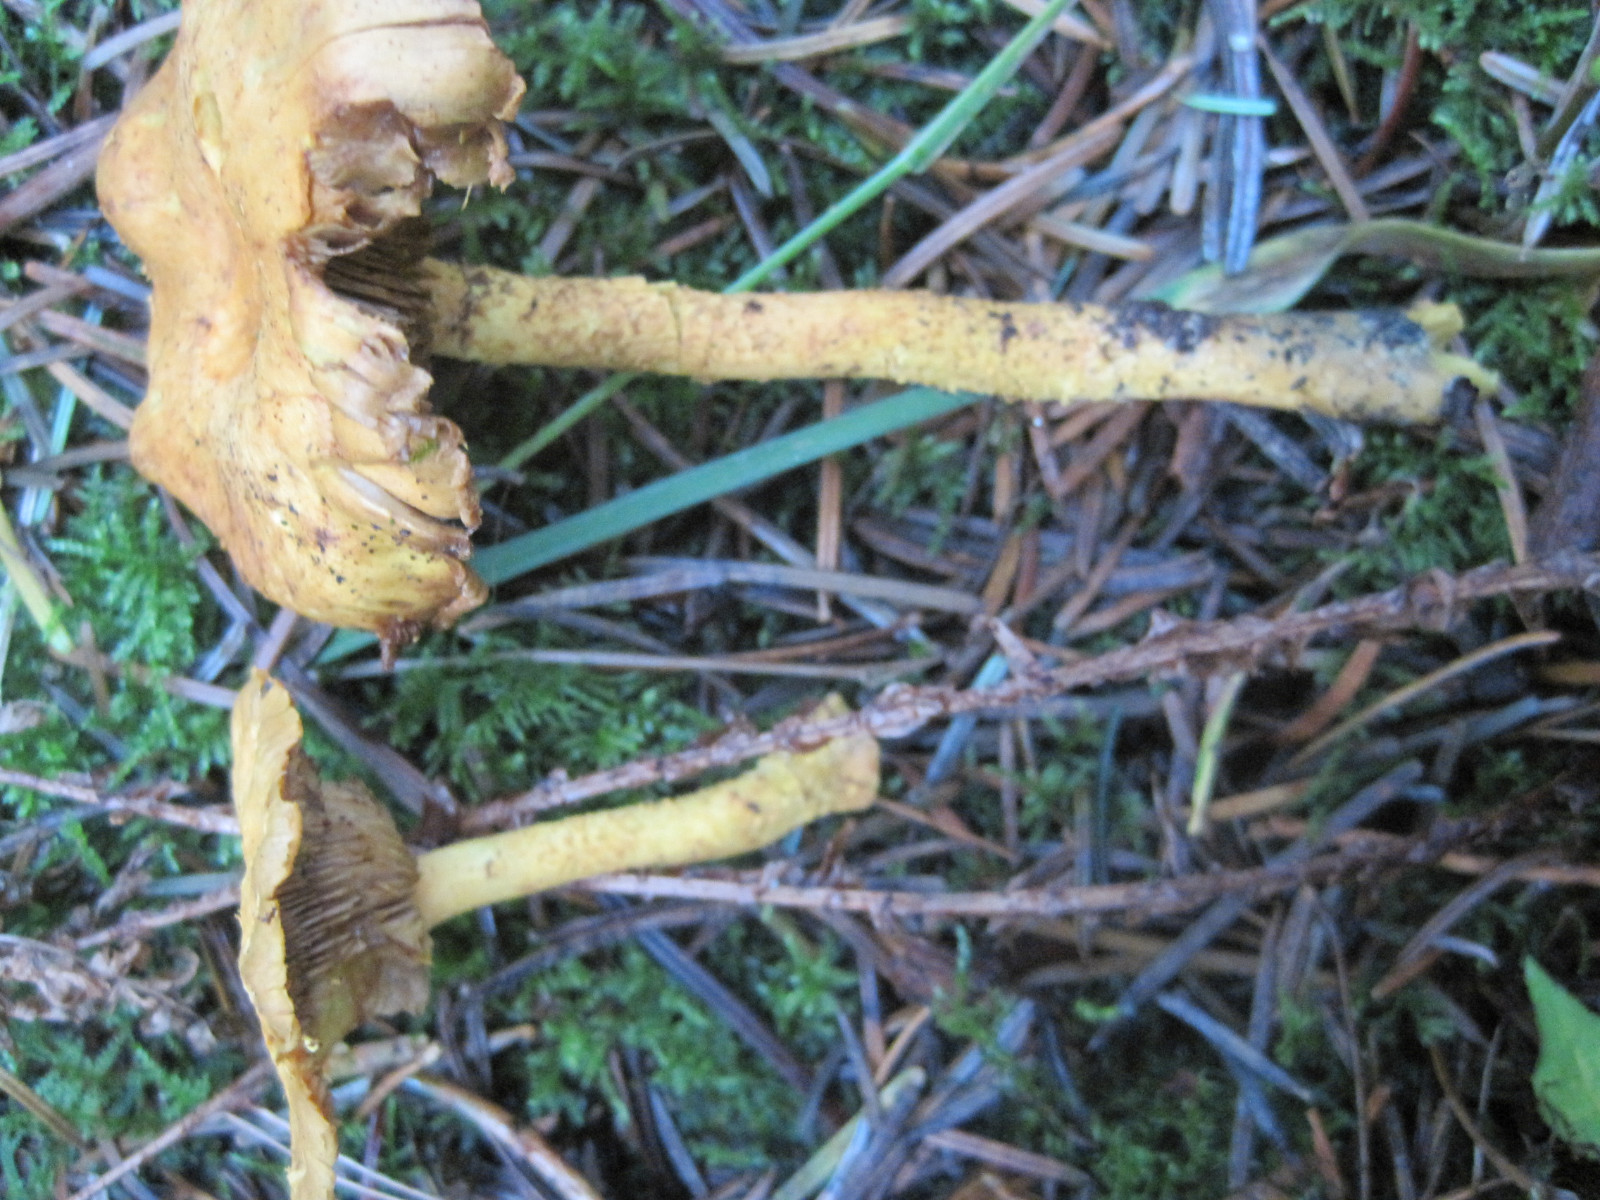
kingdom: Fungi
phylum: Basidiomycota
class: Agaricomycetes
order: Agaricales
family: Strophariaceae
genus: Pholiota
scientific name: Pholiota flammans
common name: flamme-skælhat
